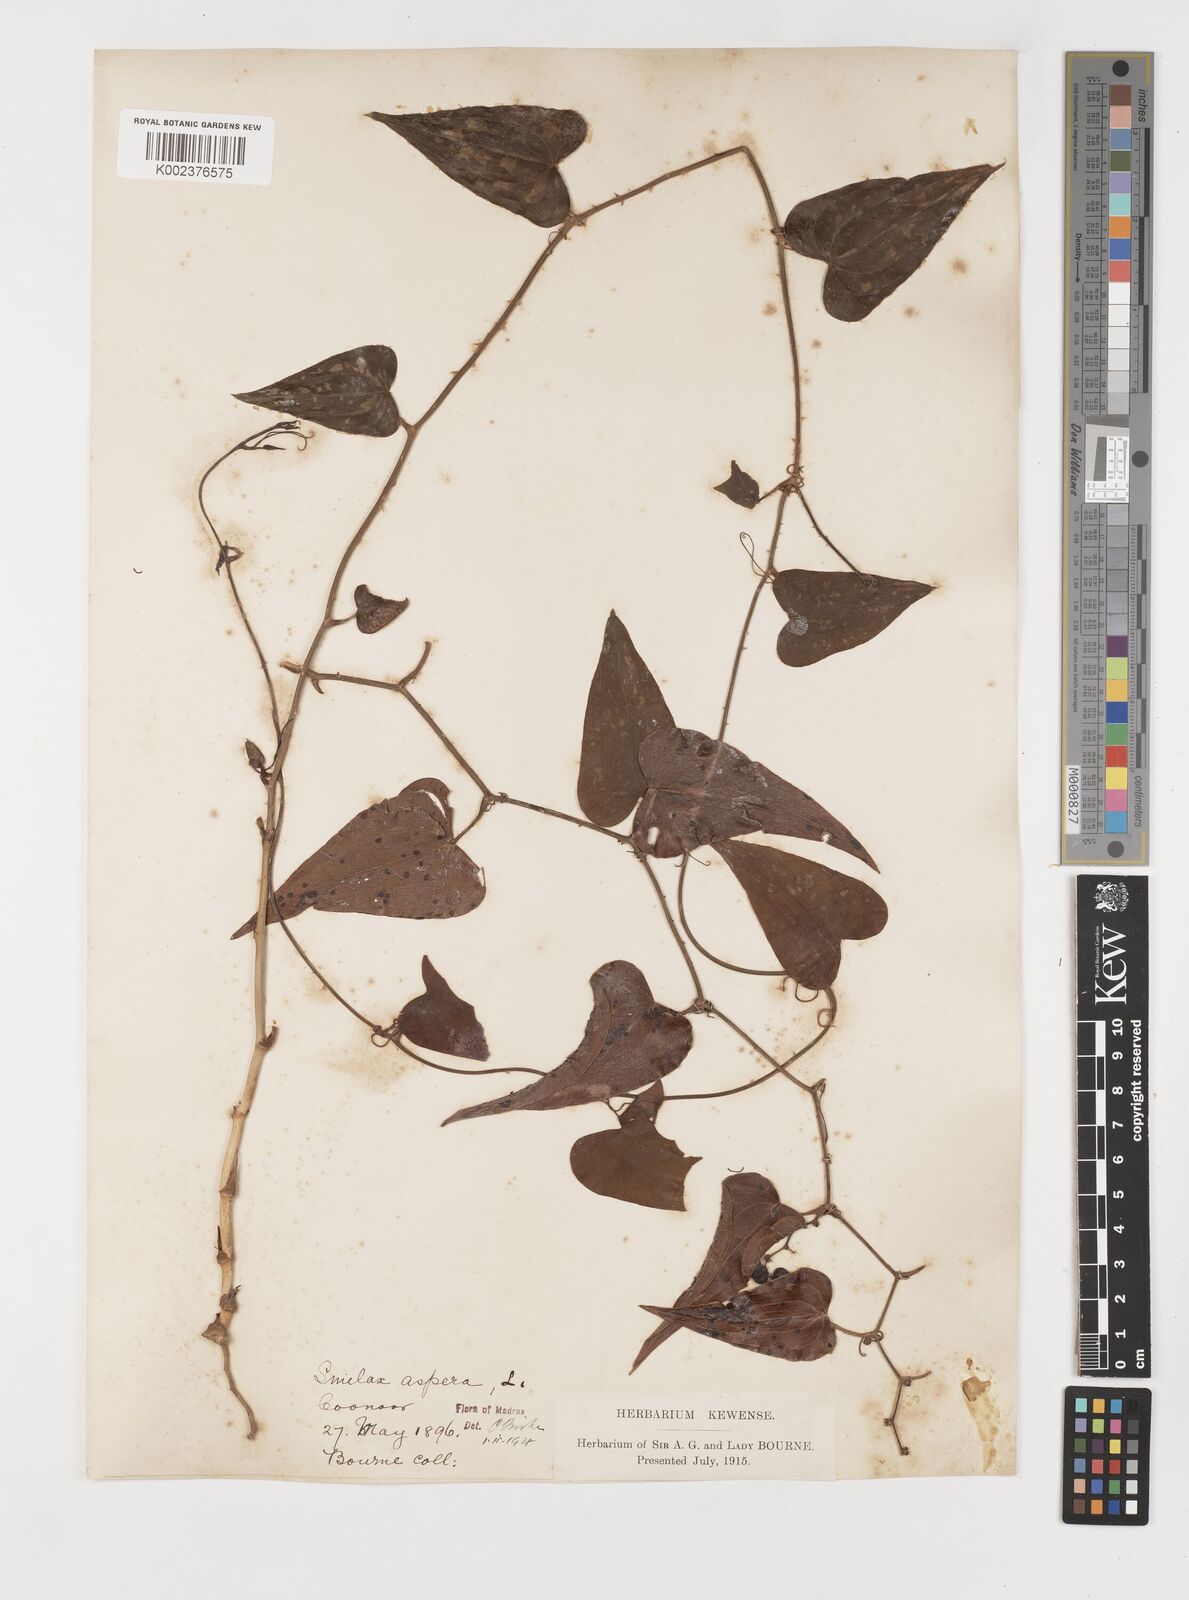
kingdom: Plantae
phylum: Tracheophyta
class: Liliopsida
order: Liliales
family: Smilacaceae
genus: Smilax
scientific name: Smilax aspera
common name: Common smilax
